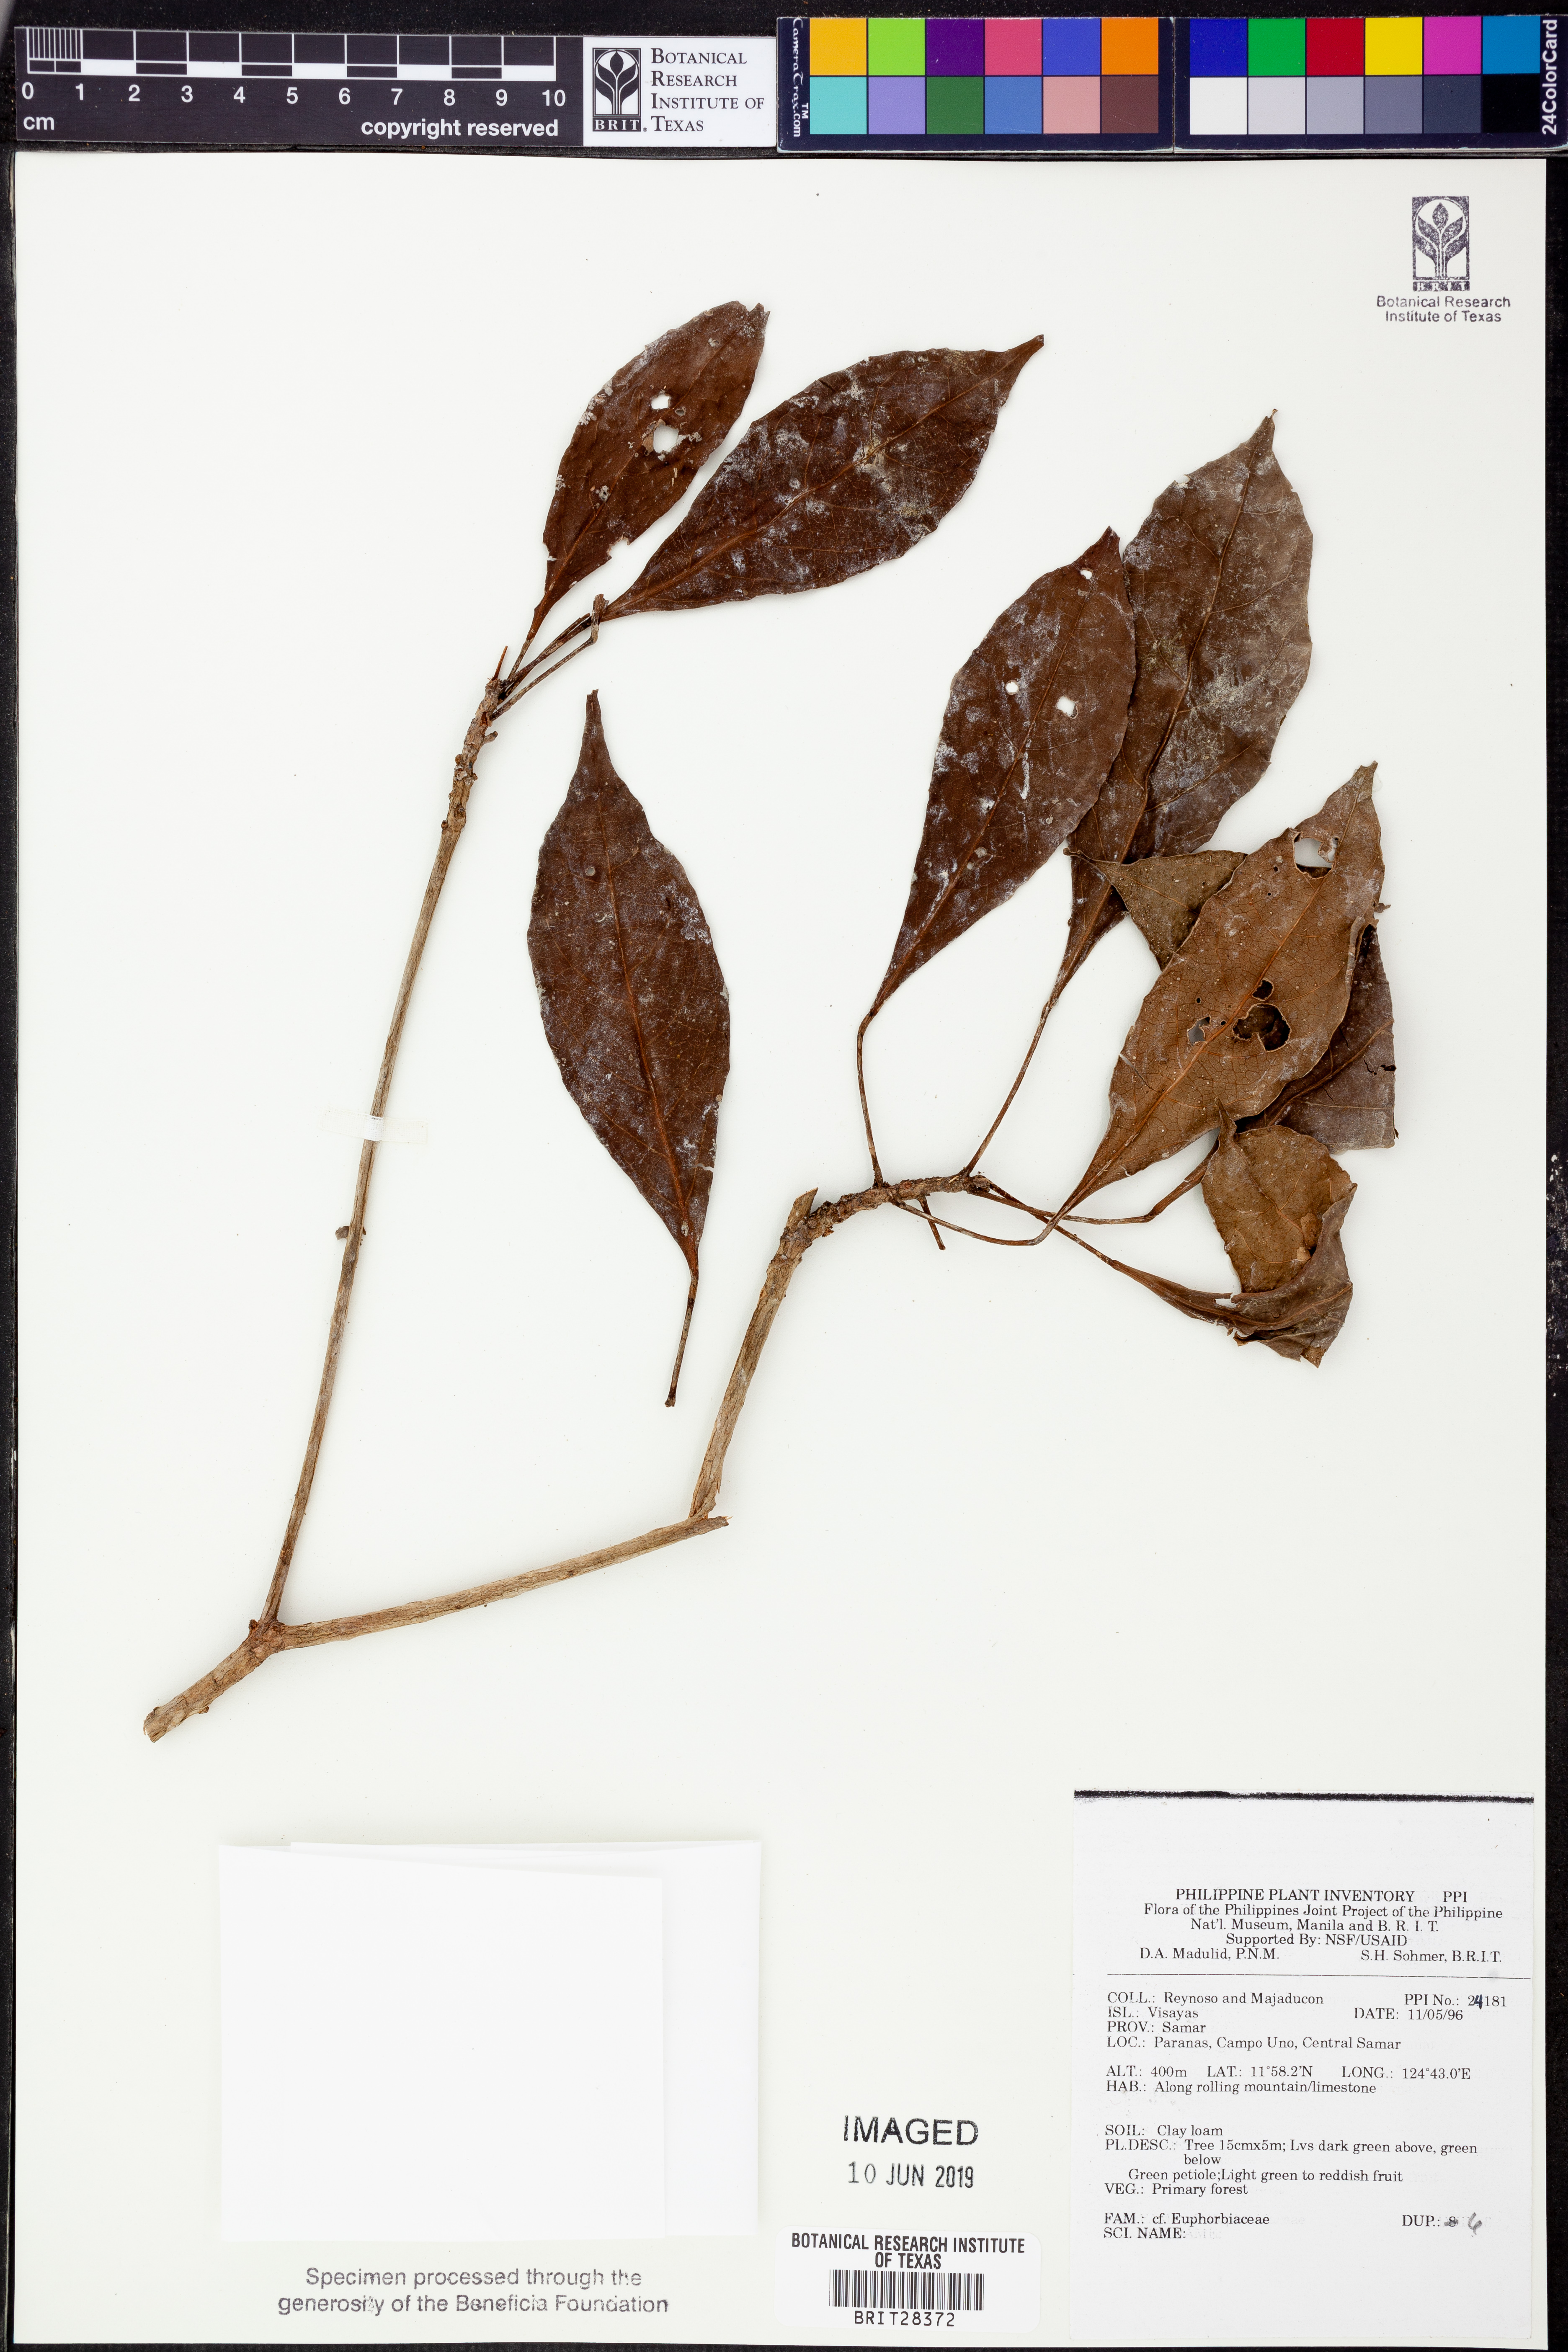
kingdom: Plantae
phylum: Tracheophyta
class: Magnoliopsida
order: Malpighiales
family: Euphorbiaceae
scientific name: Euphorbiaceae
